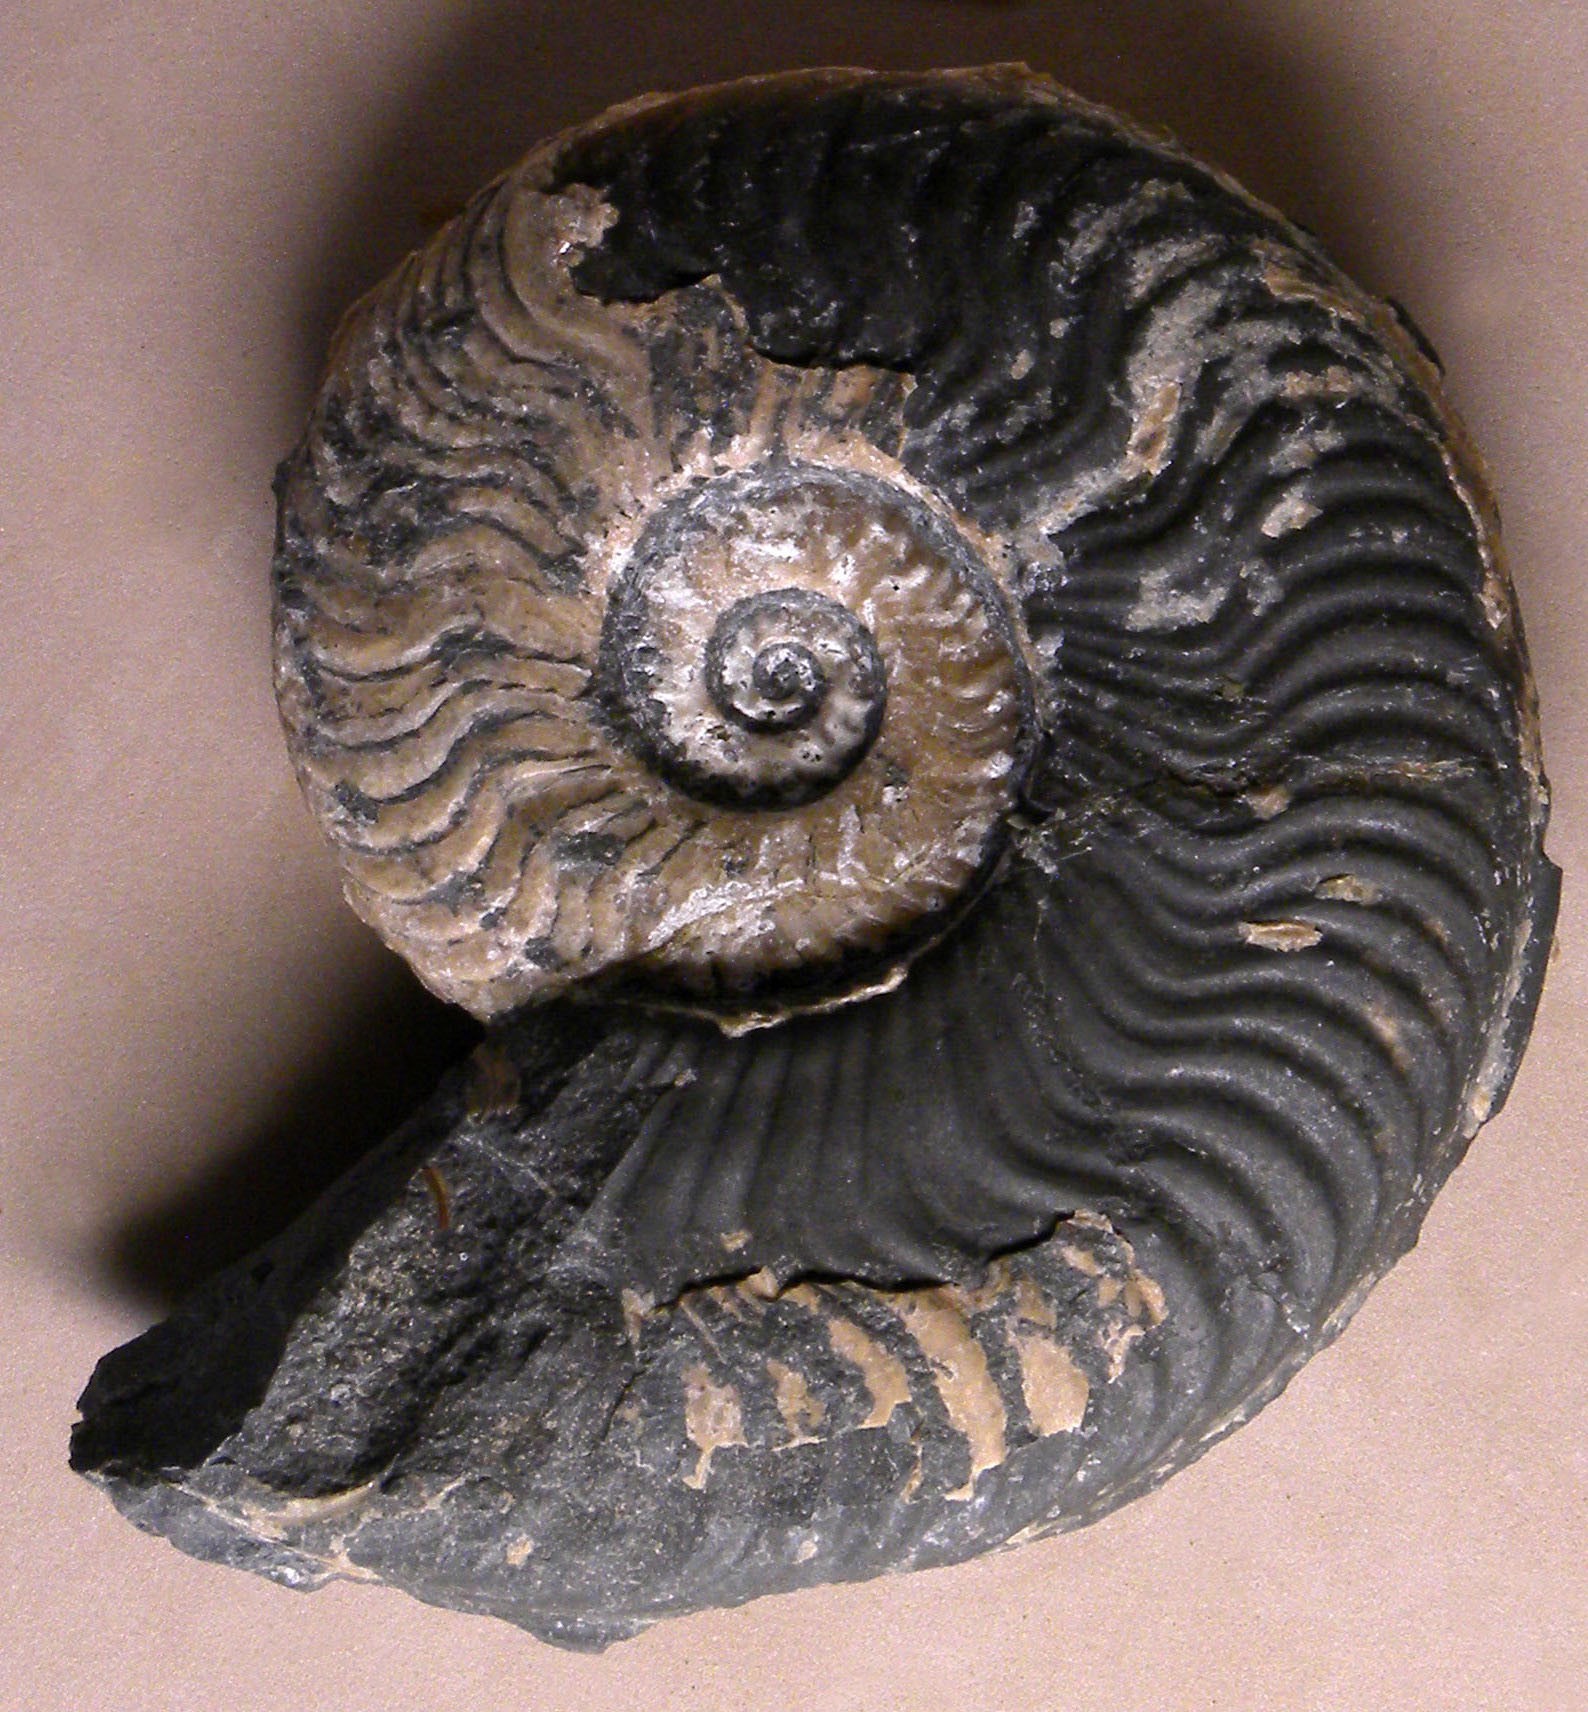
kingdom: Animalia
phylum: Mollusca
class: Cephalopoda
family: Hildoceratidae
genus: Harpoceras
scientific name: Harpoceras
